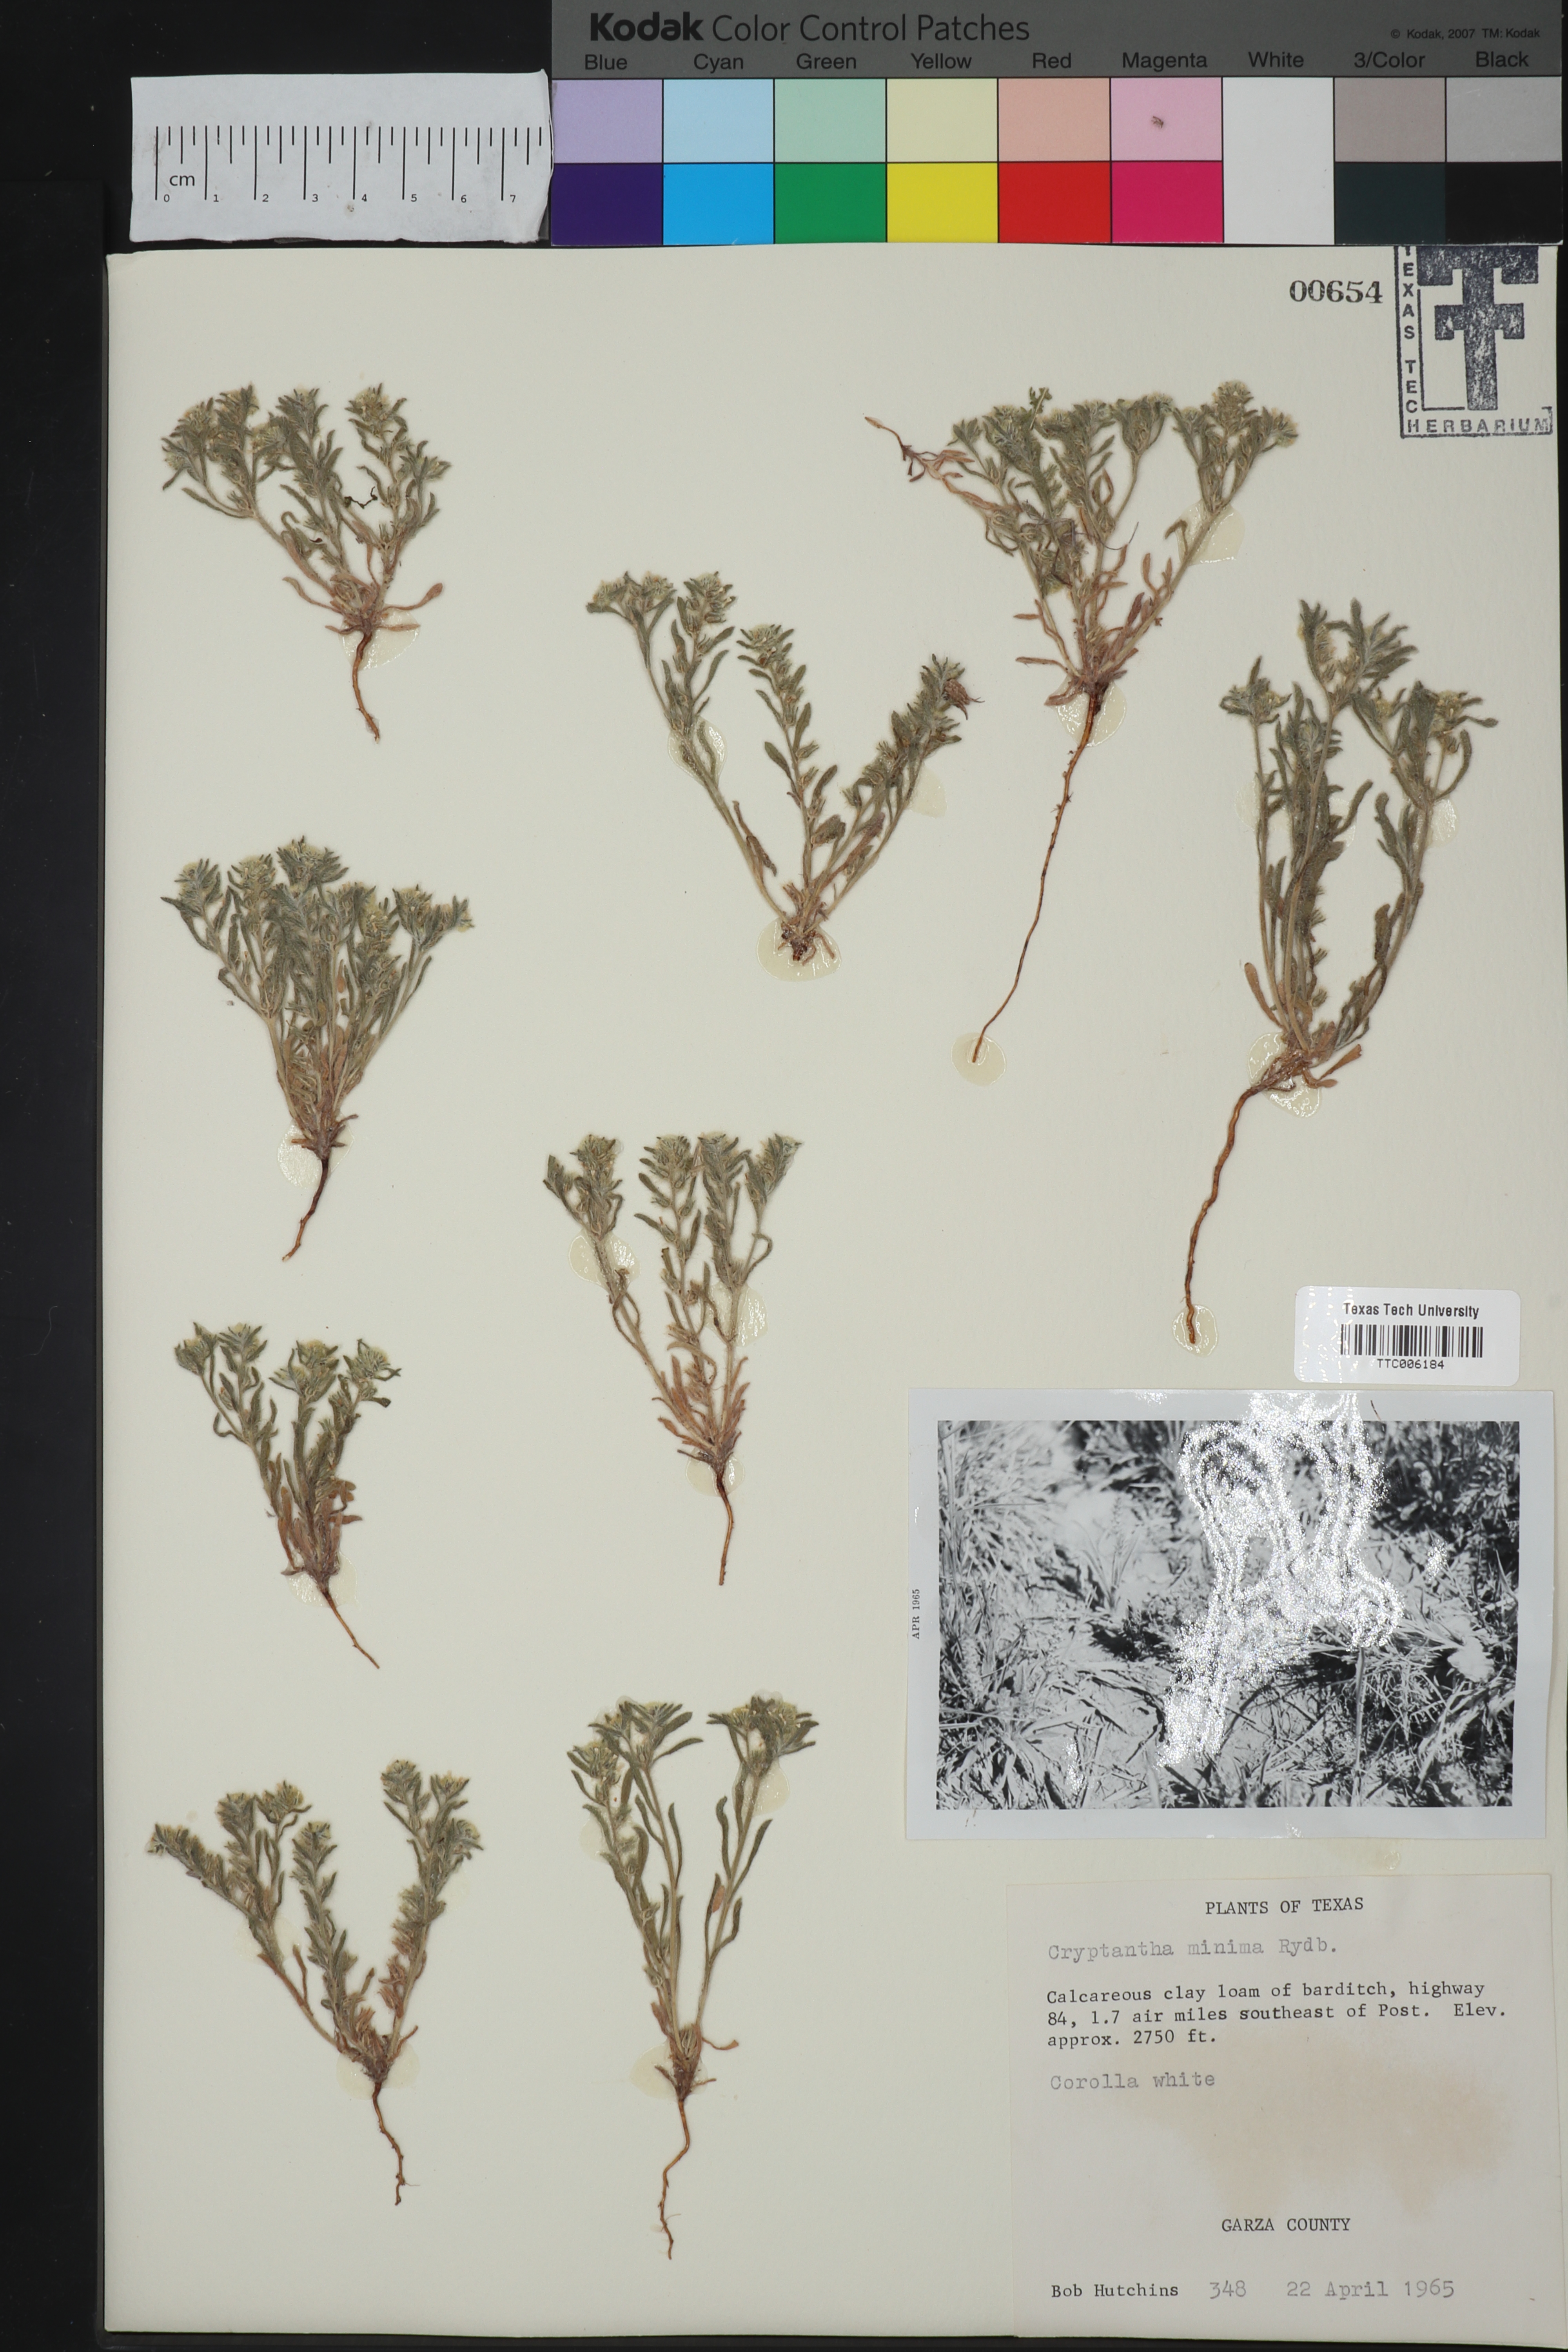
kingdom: Plantae
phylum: Tracheophyta
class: Magnoliopsida
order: Boraginales
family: Boraginaceae
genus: Cryptantha
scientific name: Cryptantha minima
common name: Little cat's-eye
